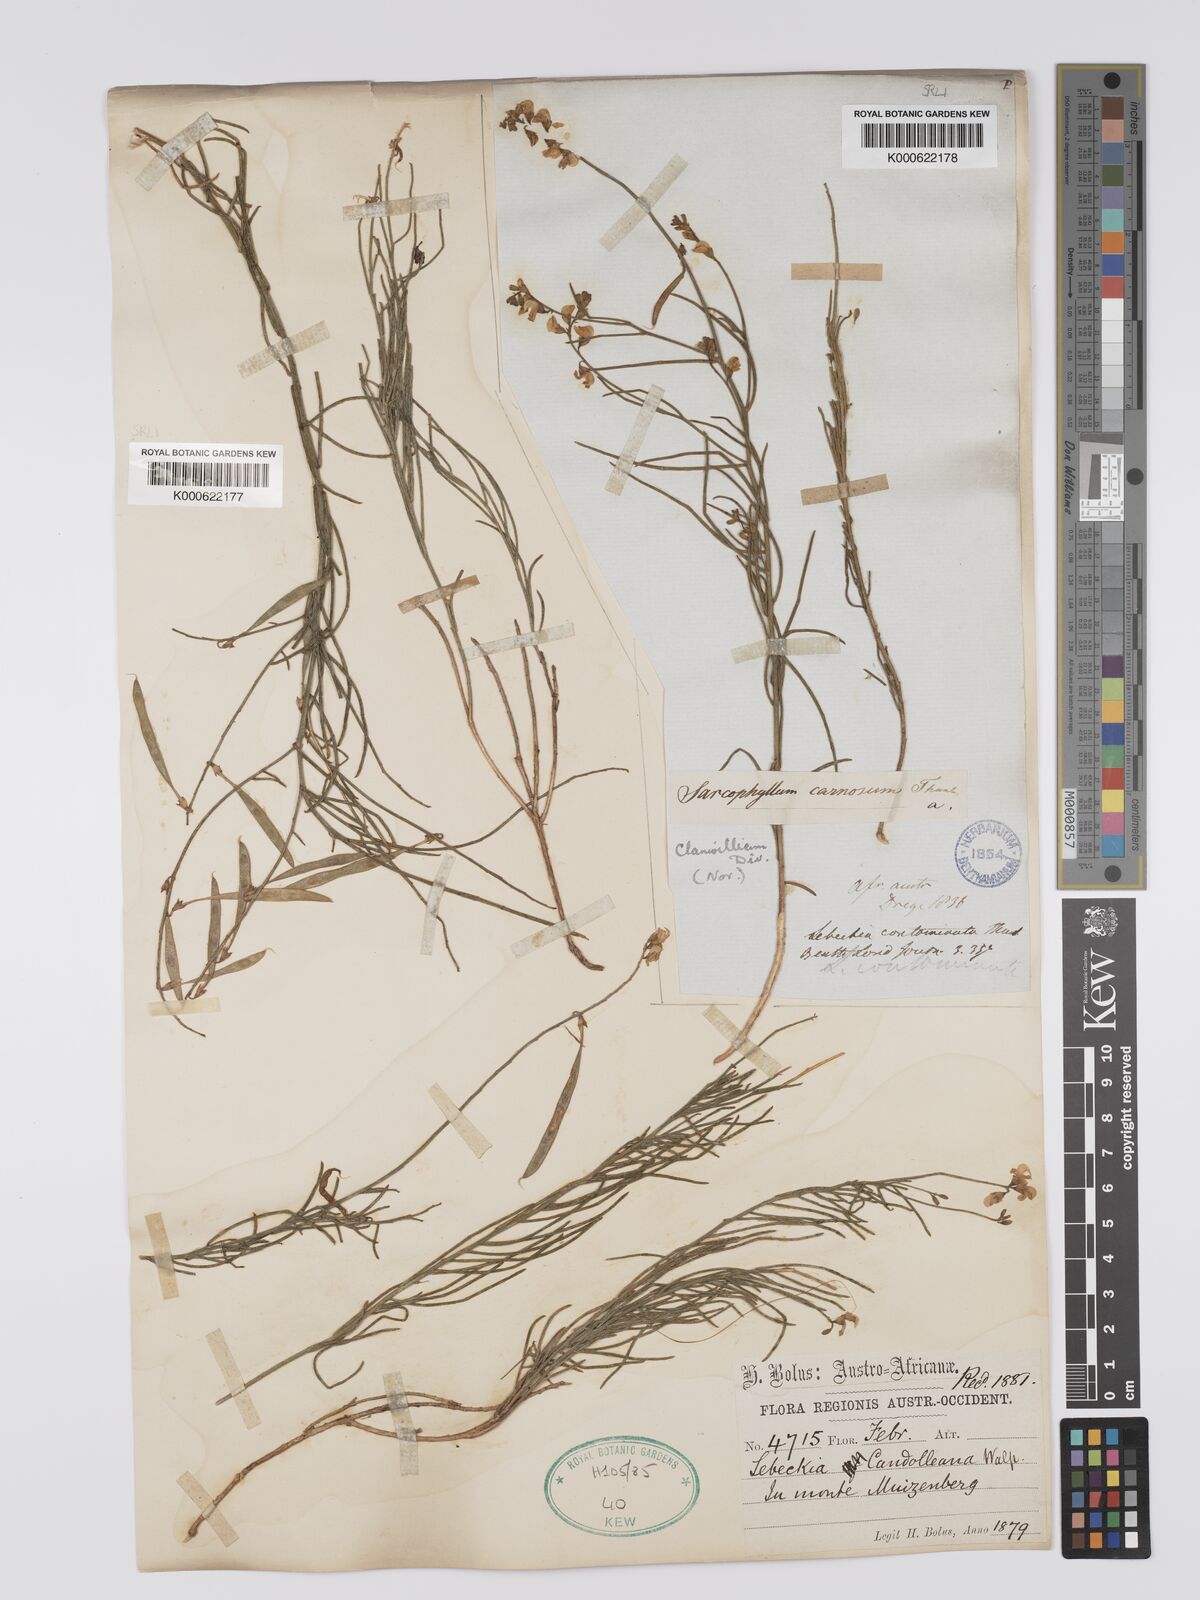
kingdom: Plantae
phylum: Tracheophyta
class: Magnoliopsida
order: Fabales
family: Fabaceae
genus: Aspalathus
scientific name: Aspalathus linearis
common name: Rooibos-tea
